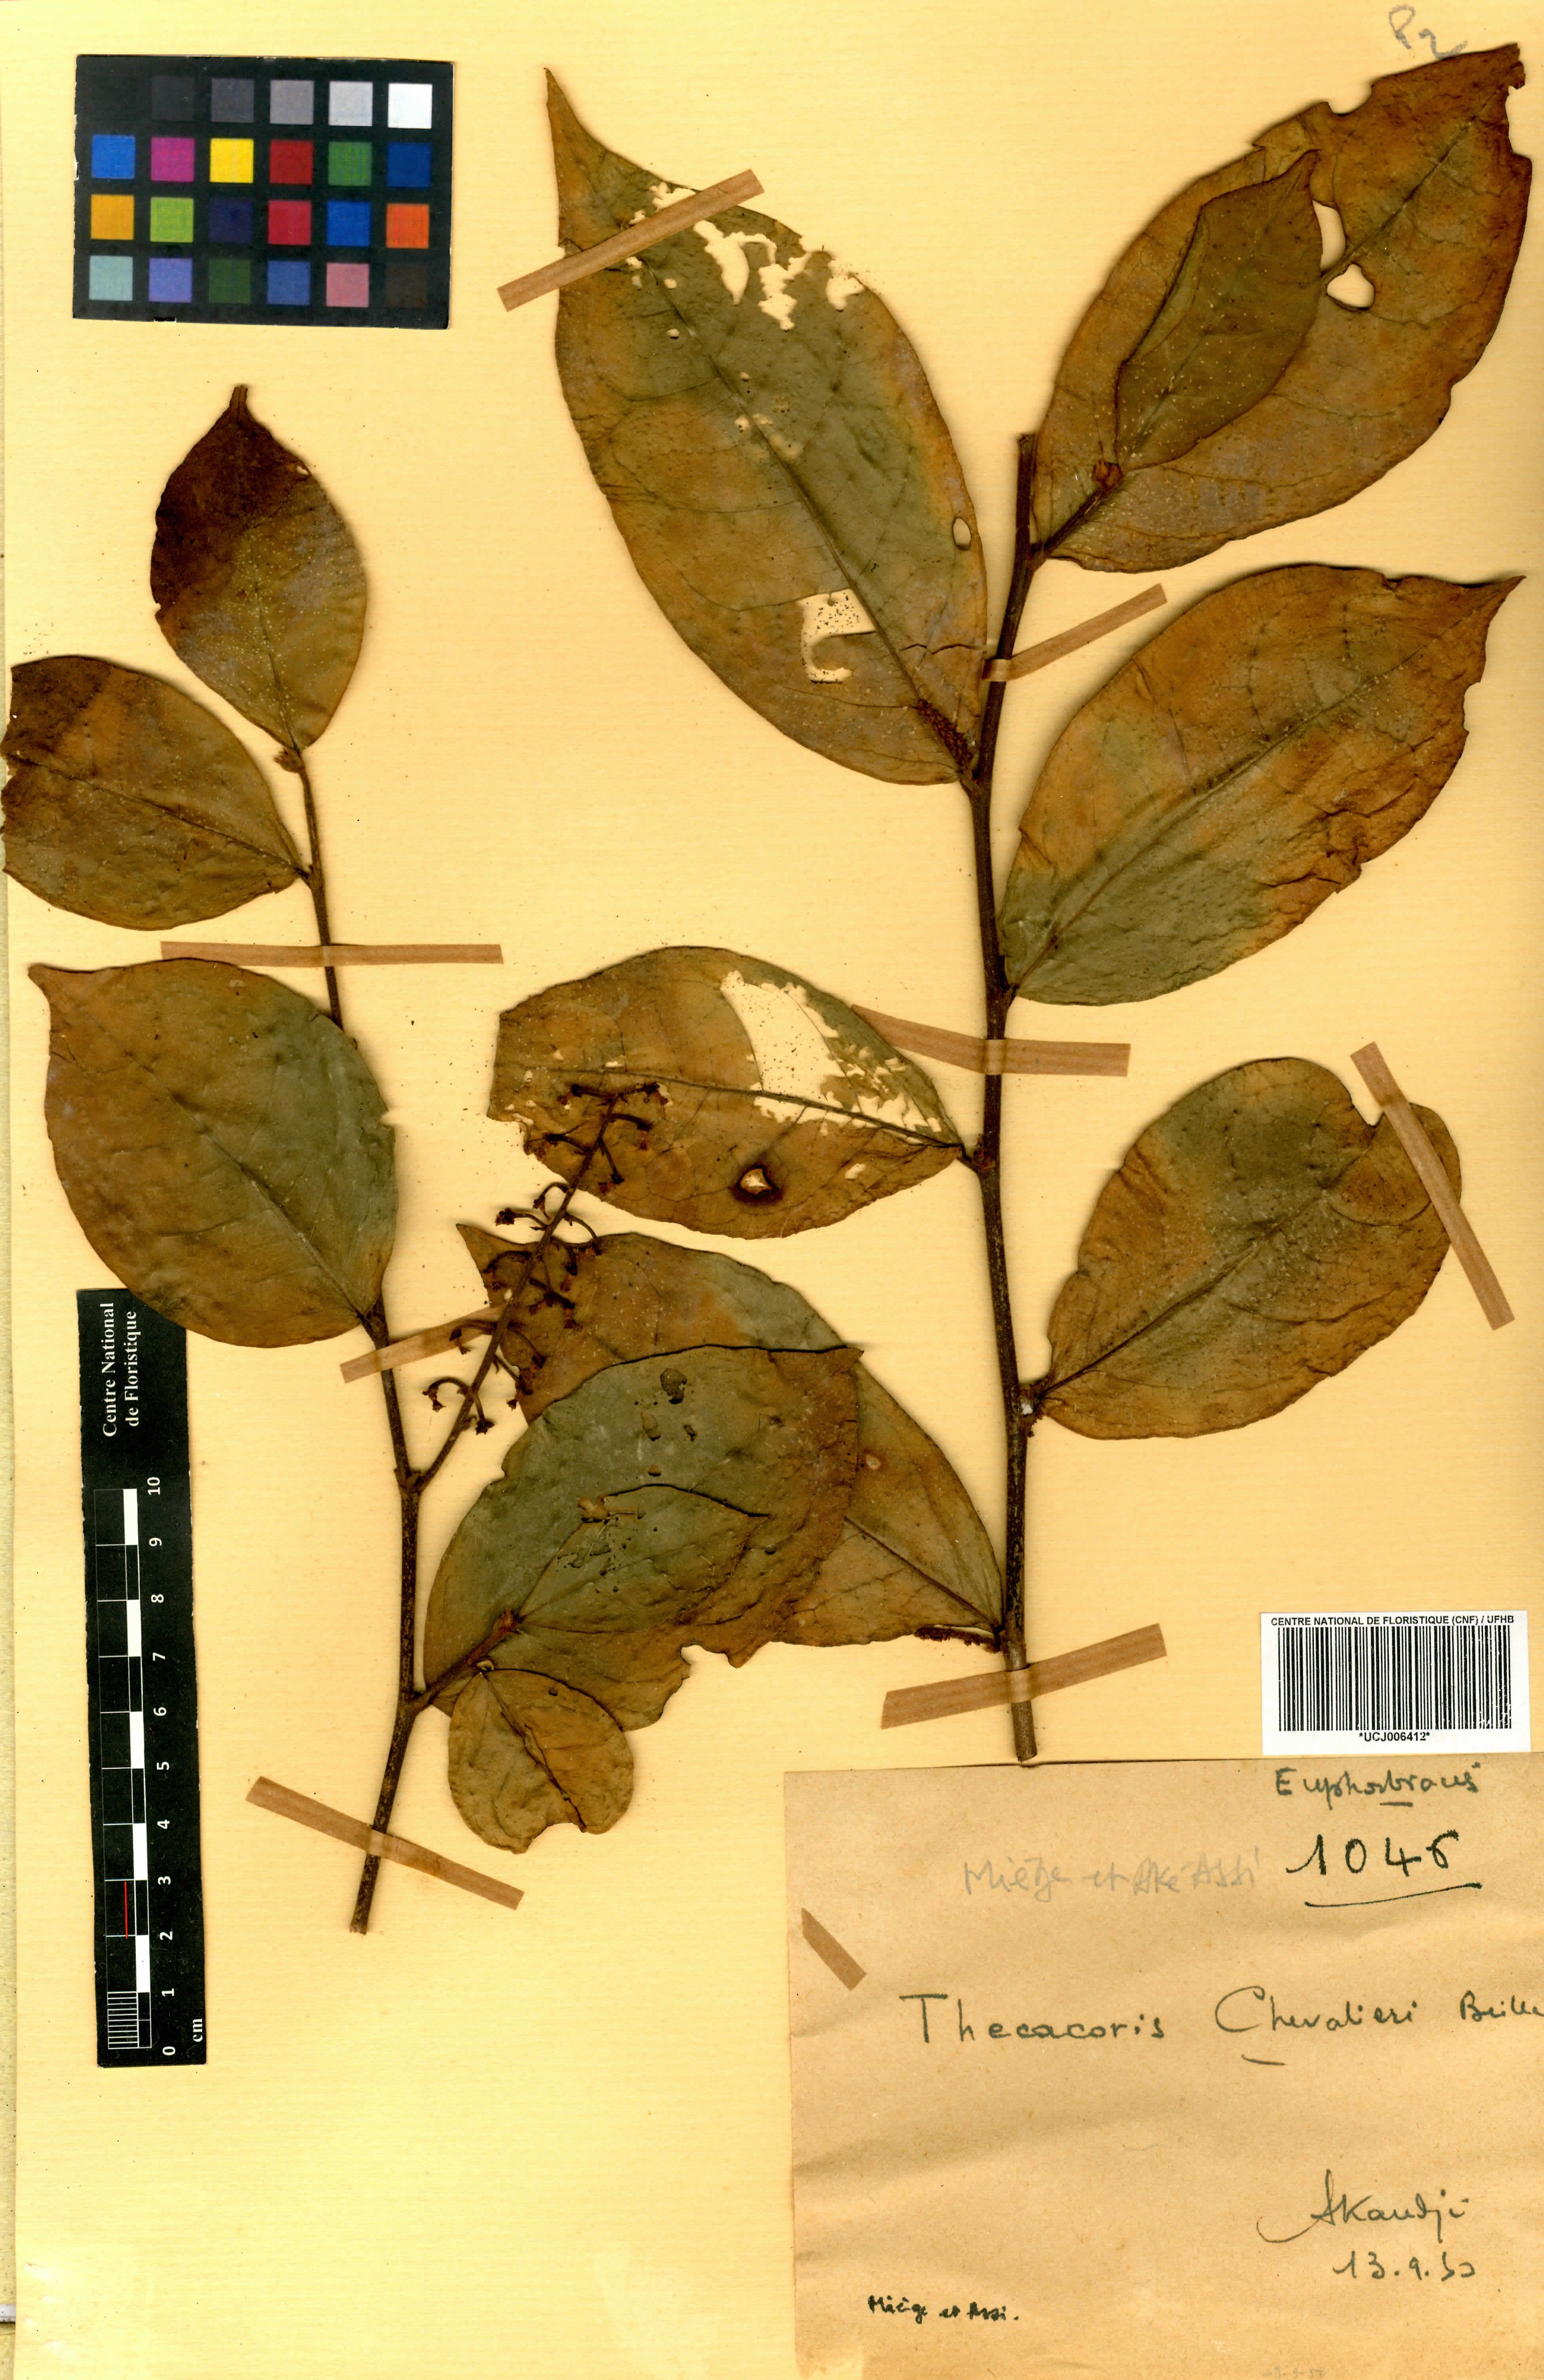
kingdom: Plantae
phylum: Tracheophyta
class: Magnoliopsida
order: Malpighiales
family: Phyllanthaceae
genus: Thecacoris
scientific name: Thecacoris stenopetala
